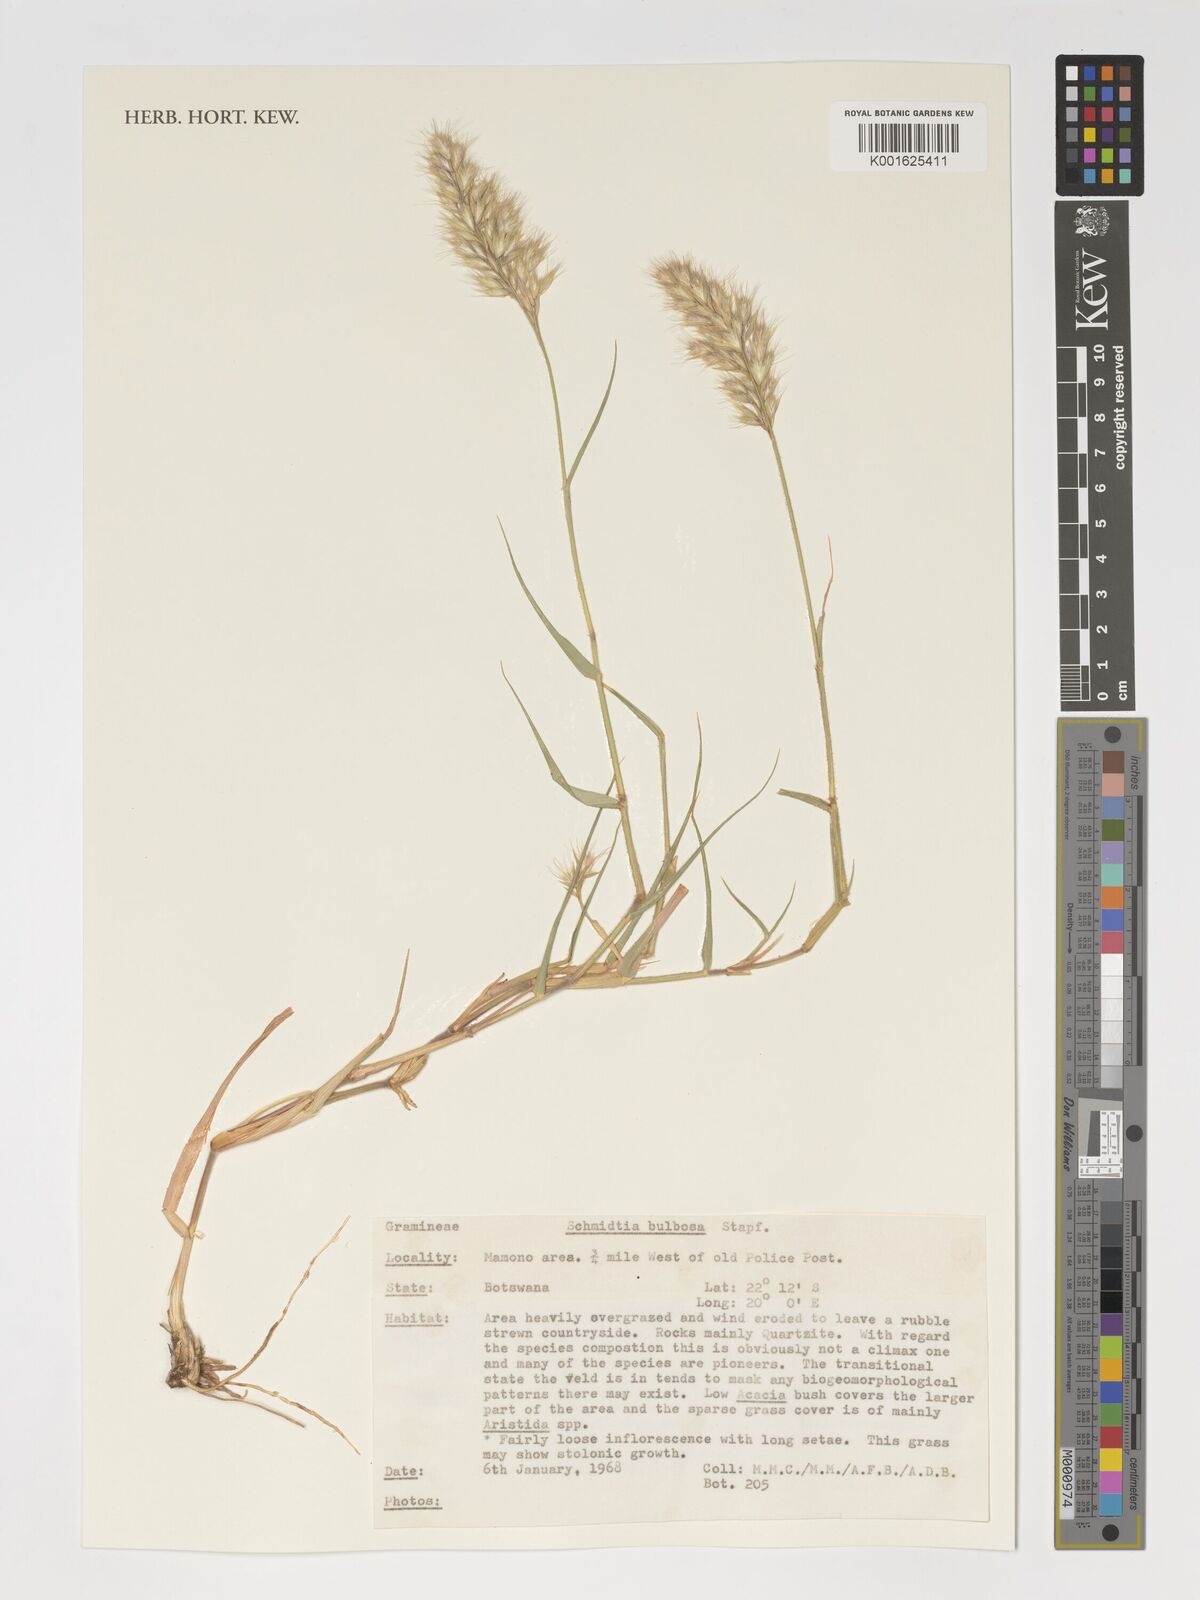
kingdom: Plantae
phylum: Tracheophyta
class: Liliopsida
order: Poales
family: Poaceae
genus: Schmidtia
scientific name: Schmidtia pappophoroides
